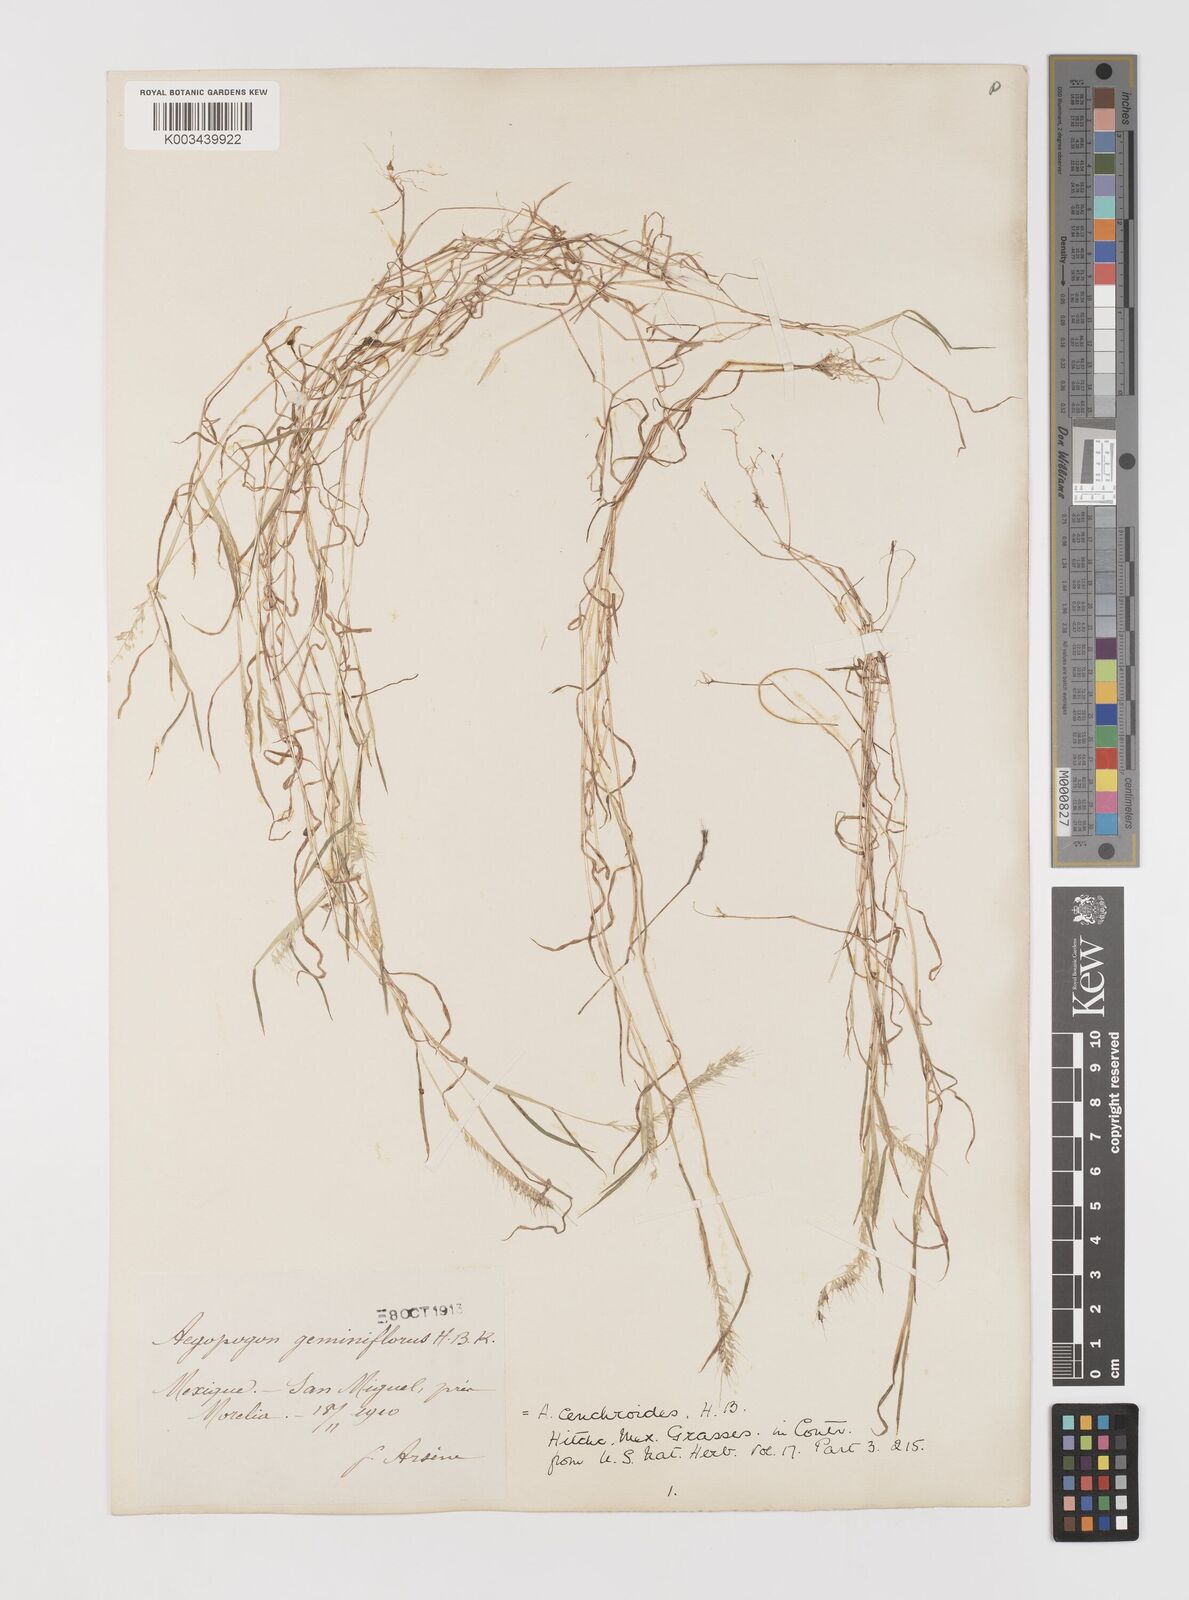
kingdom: Plantae
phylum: Tracheophyta
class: Liliopsida
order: Poales
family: Poaceae
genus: Muhlenbergia
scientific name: Muhlenbergia uniseta
